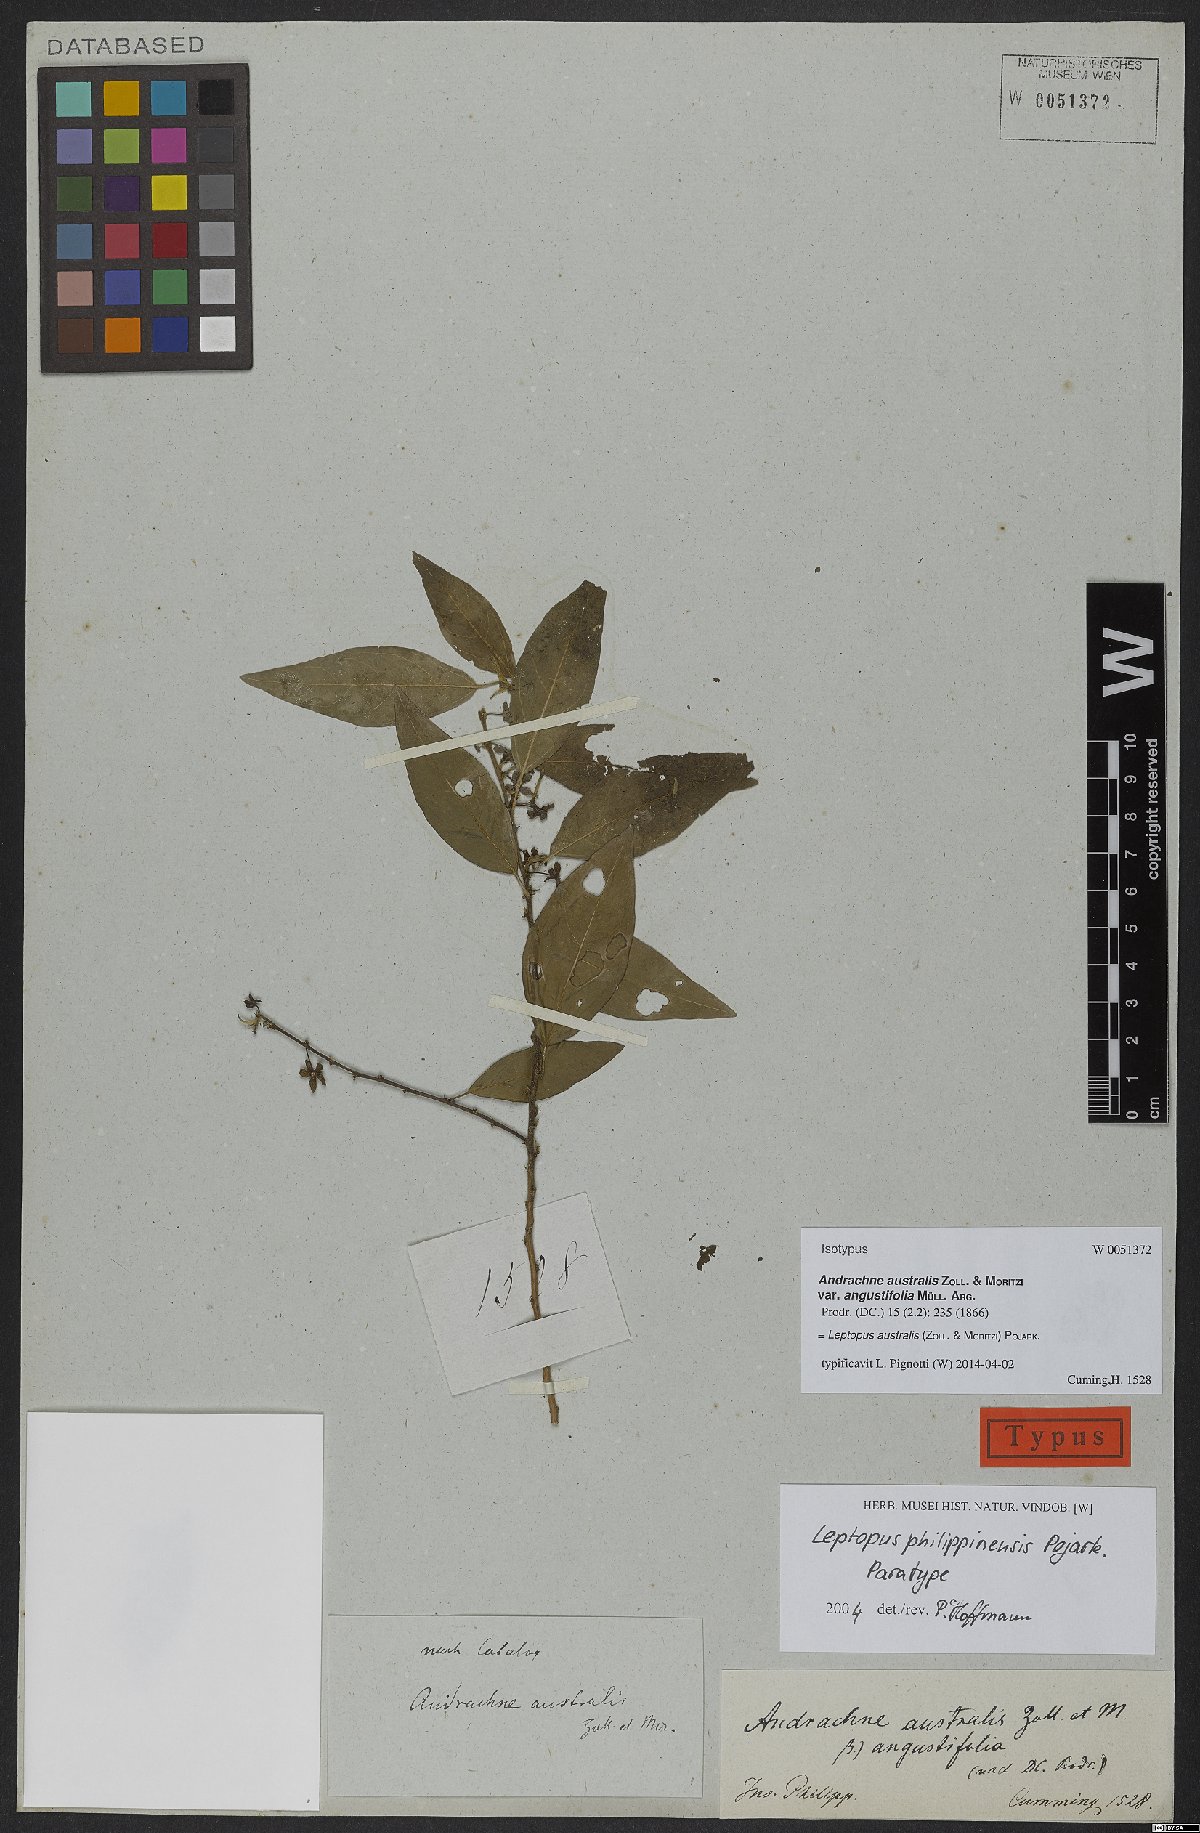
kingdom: Plantae
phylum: Tracheophyta
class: Magnoliopsida
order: Malpighiales
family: Phyllanthaceae
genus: Leptopus
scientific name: Leptopus australis
